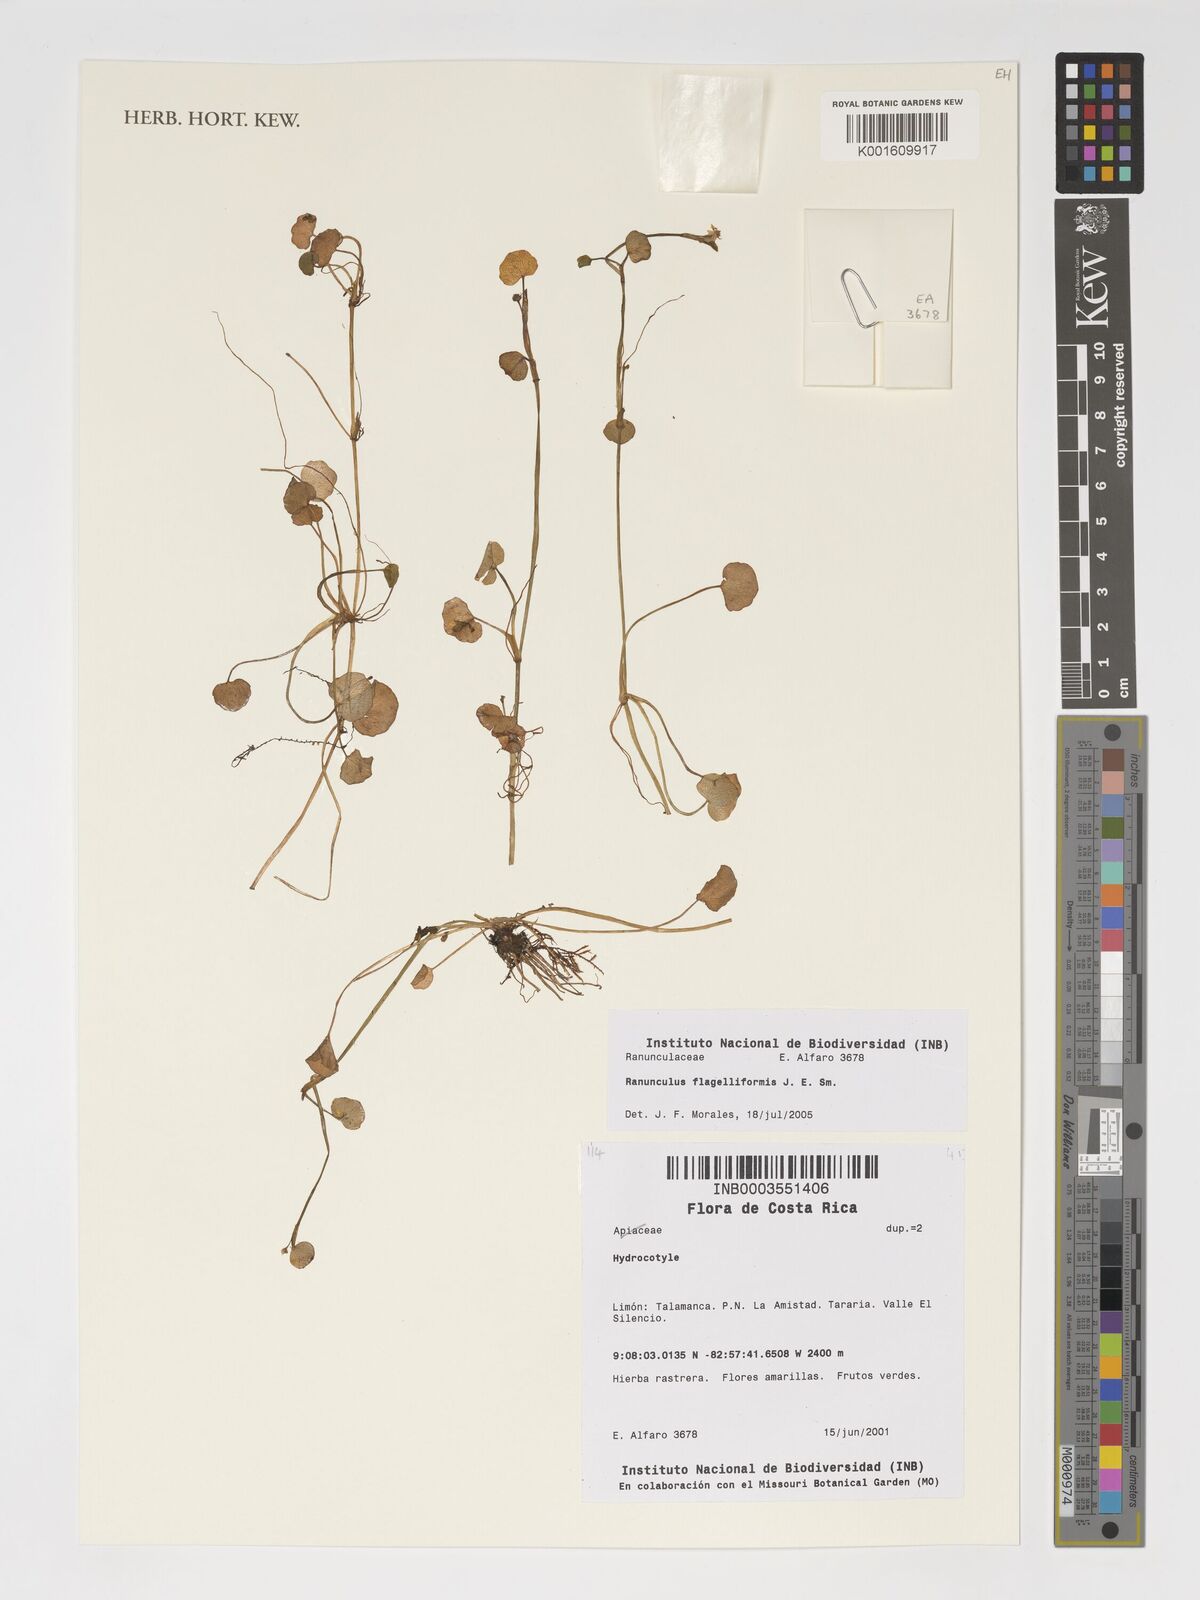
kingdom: Plantae
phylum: Tracheophyta
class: Magnoliopsida
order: Ranunculales
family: Ranunculaceae
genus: Ranunculus
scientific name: Ranunculus flagelliformis
